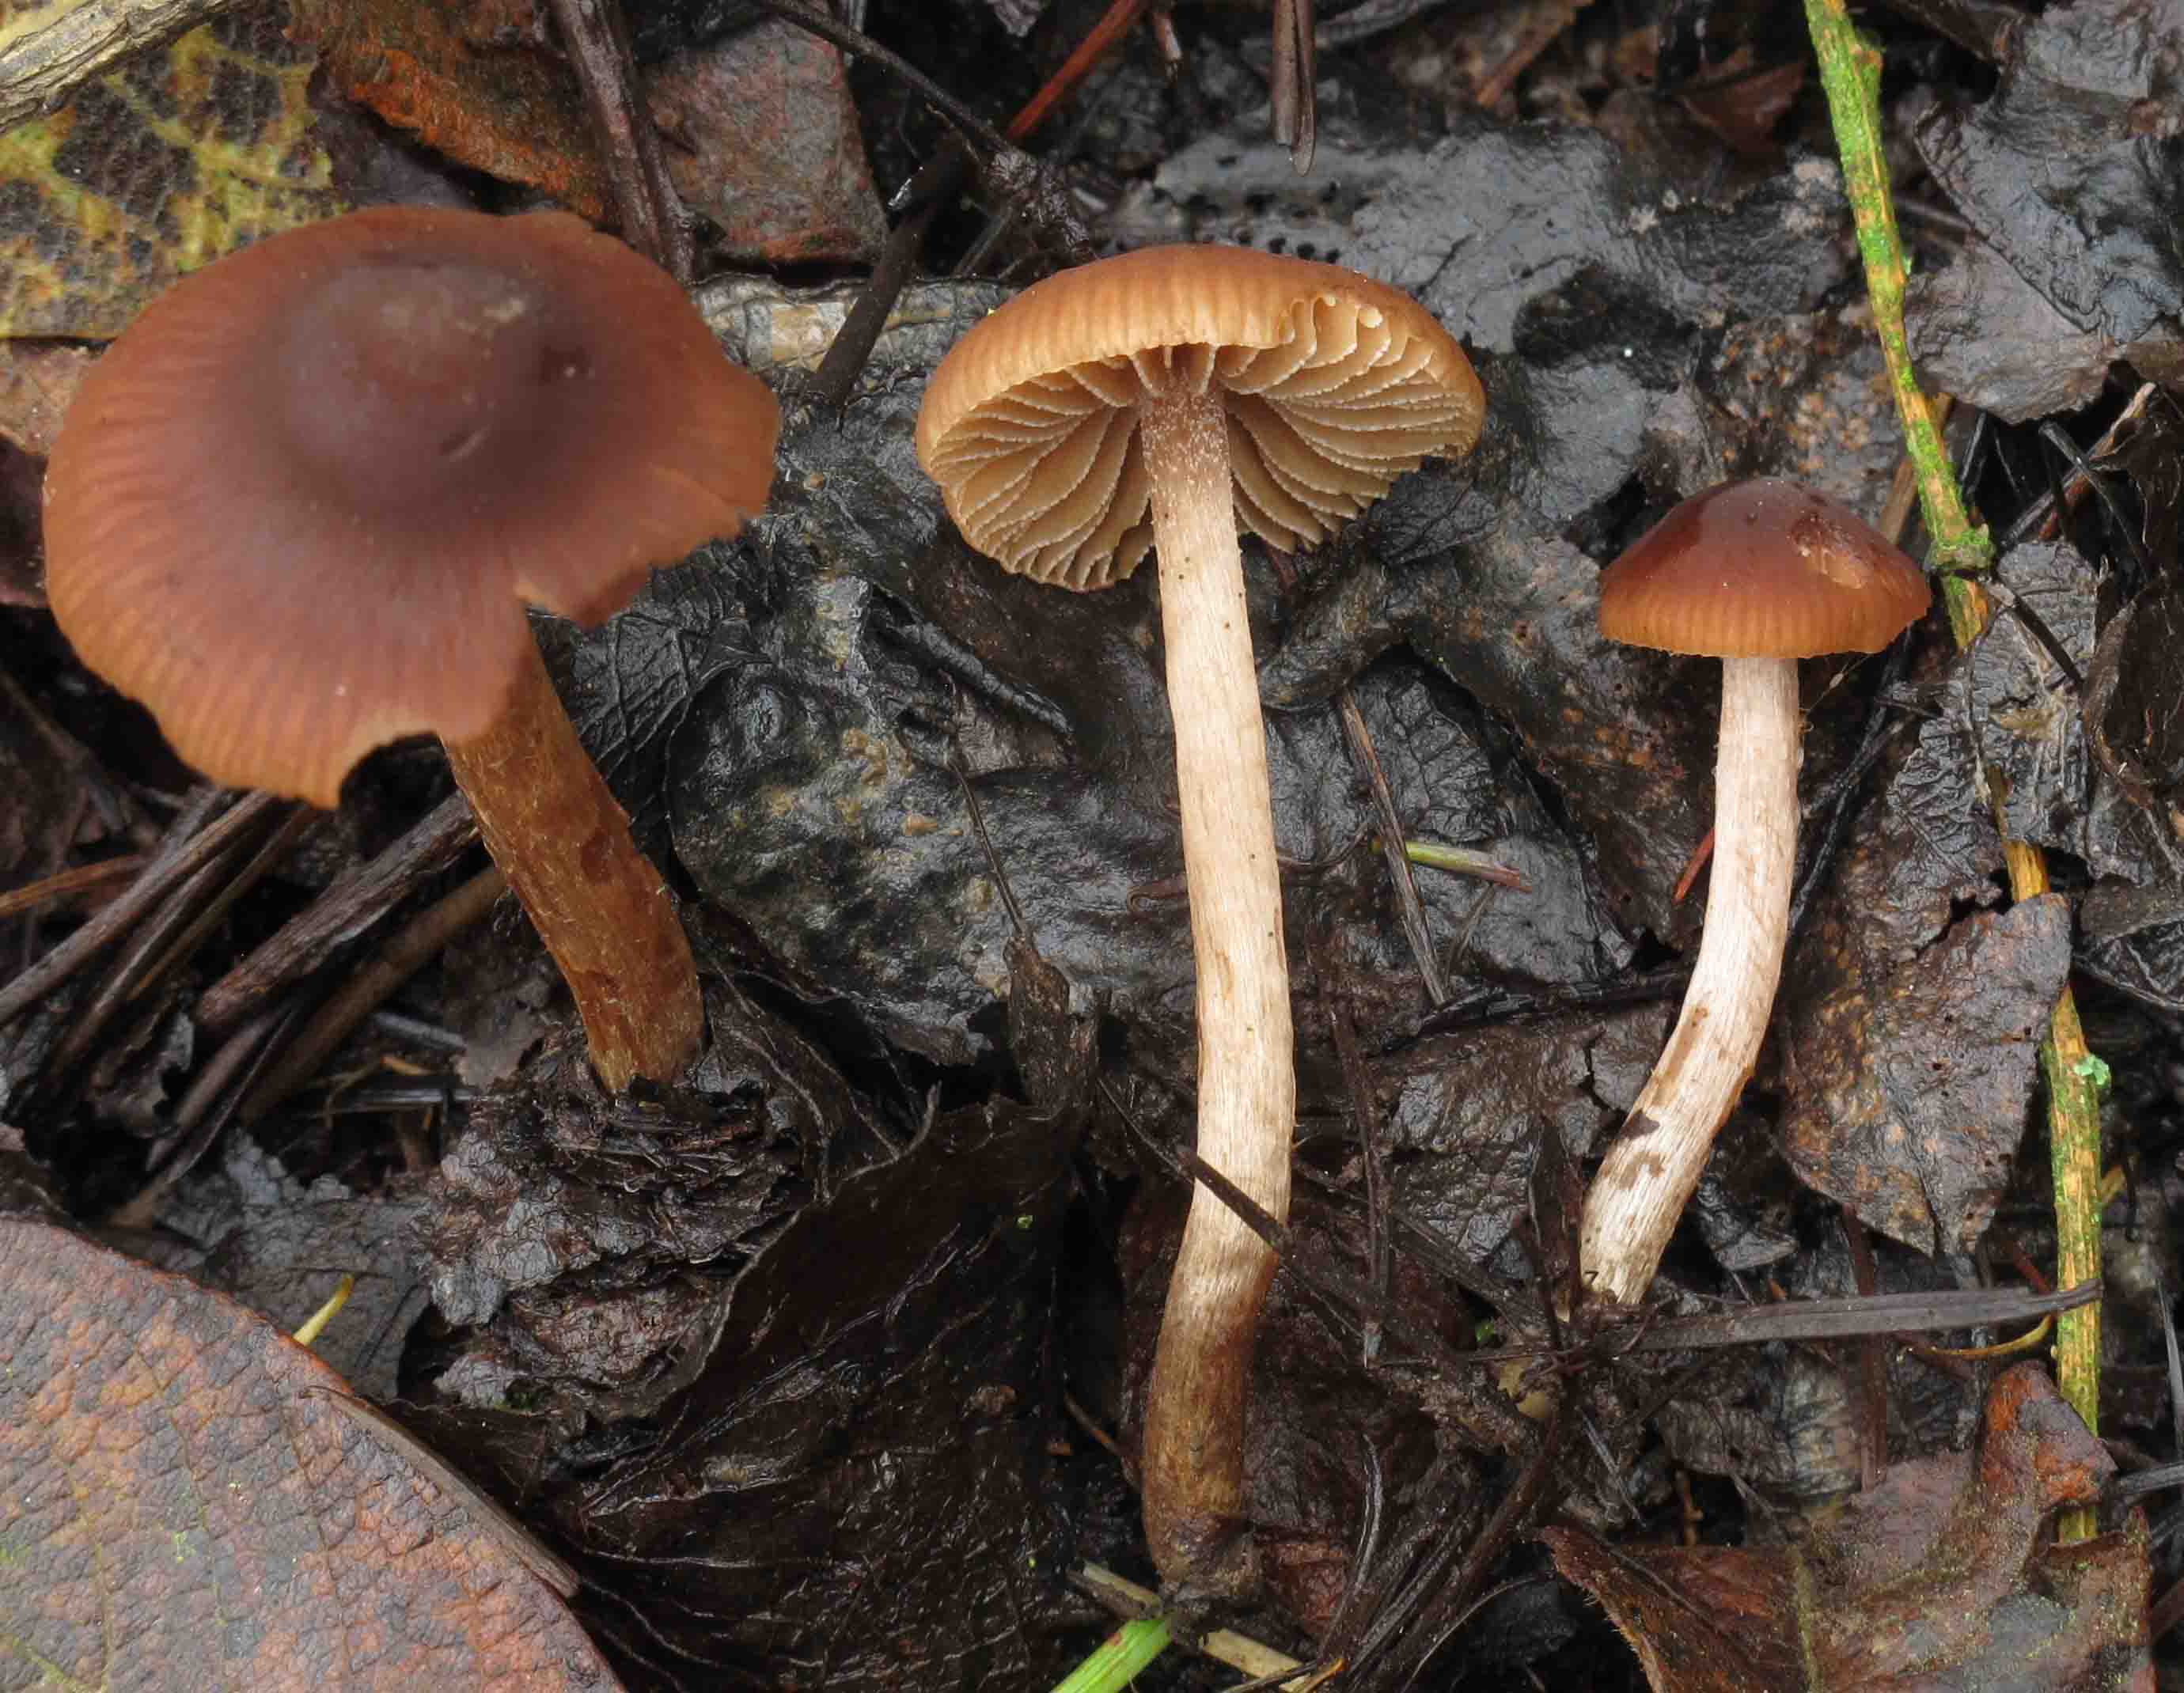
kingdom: Fungi
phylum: Basidiomycota
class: Agaricomycetes
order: Agaricales
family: Hymenogastraceae
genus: Naucoria
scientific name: Naucoria salicis
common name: pile-knaphat
